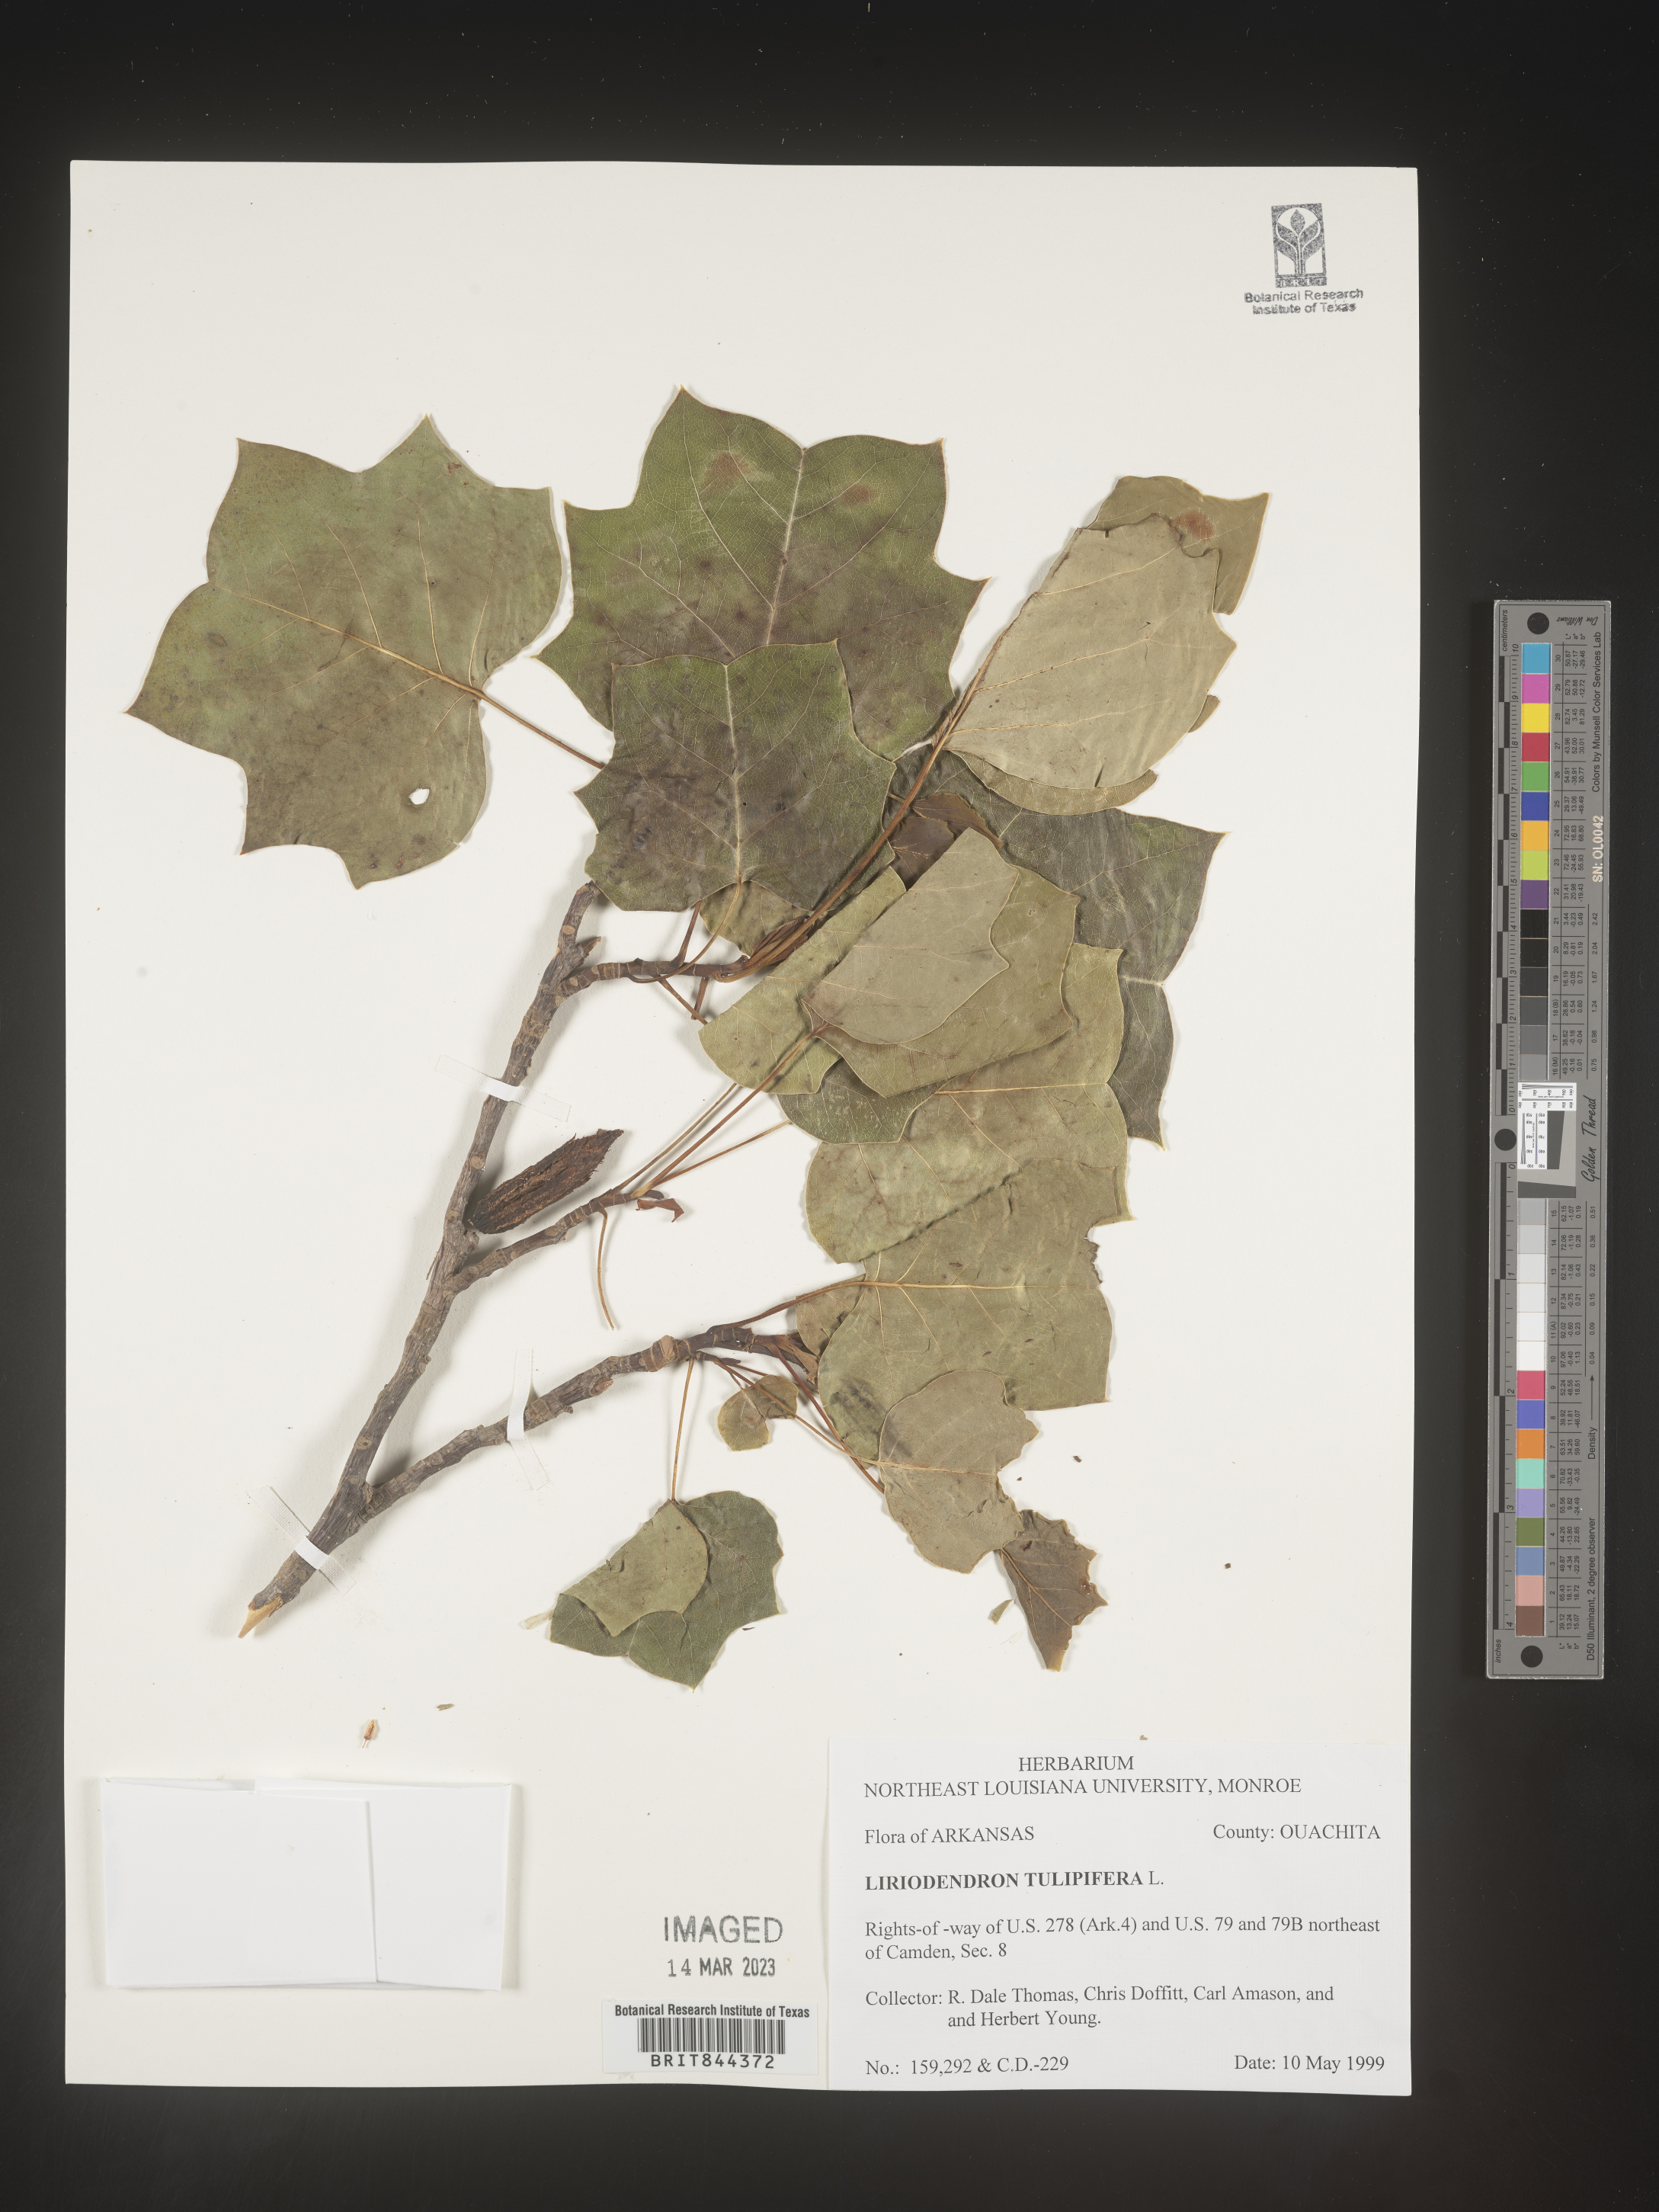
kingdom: Plantae
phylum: Tracheophyta
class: Magnoliopsida
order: Magnoliales
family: Magnoliaceae
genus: Liriodendron
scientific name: Liriodendron tulipifera
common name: Tulip tree
